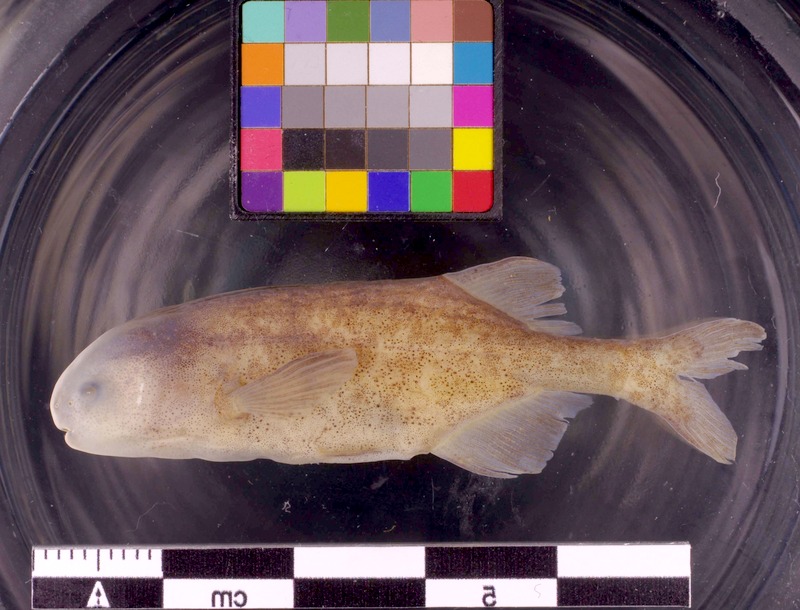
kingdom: Animalia
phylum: Chordata
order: Osteoglossiformes
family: Mormyridae
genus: Pollimyrus
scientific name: Pollimyrus cuandoensis
